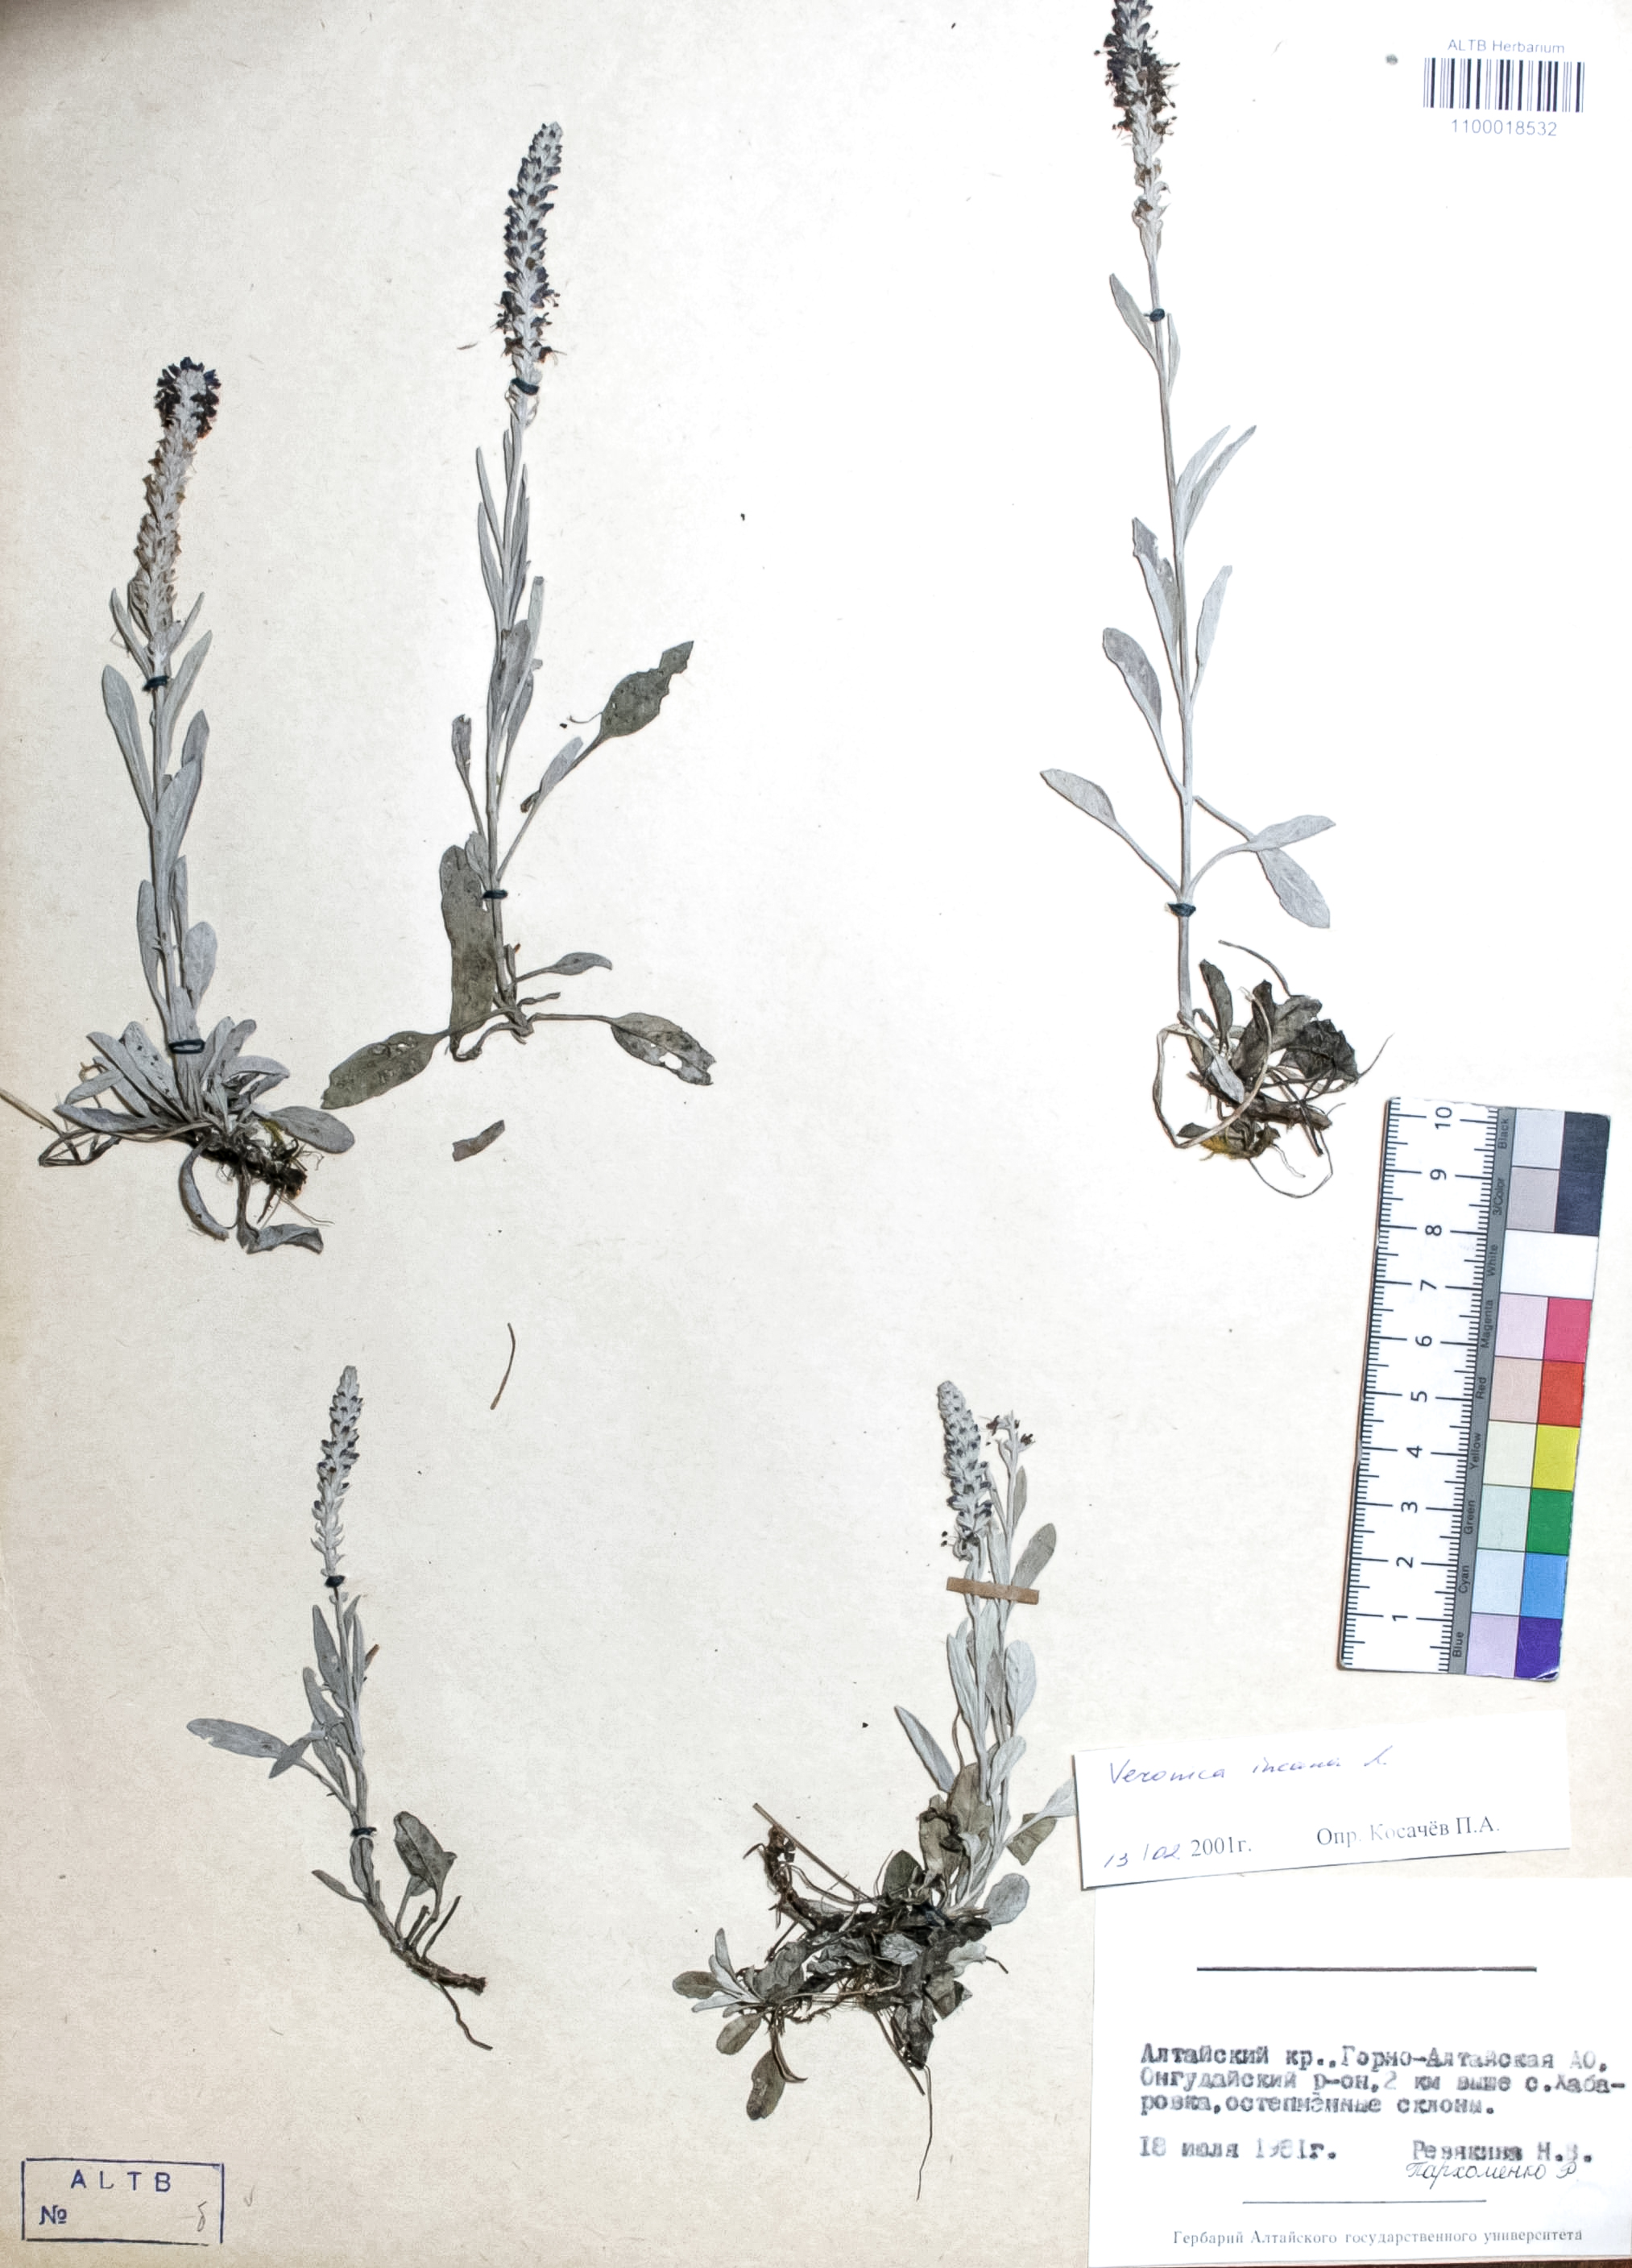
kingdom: Plantae
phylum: Tracheophyta
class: Magnoliopsida
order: Lamiales
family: Plantaginaceae
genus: Veronica
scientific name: Veronica incana
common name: Silver speedwell
